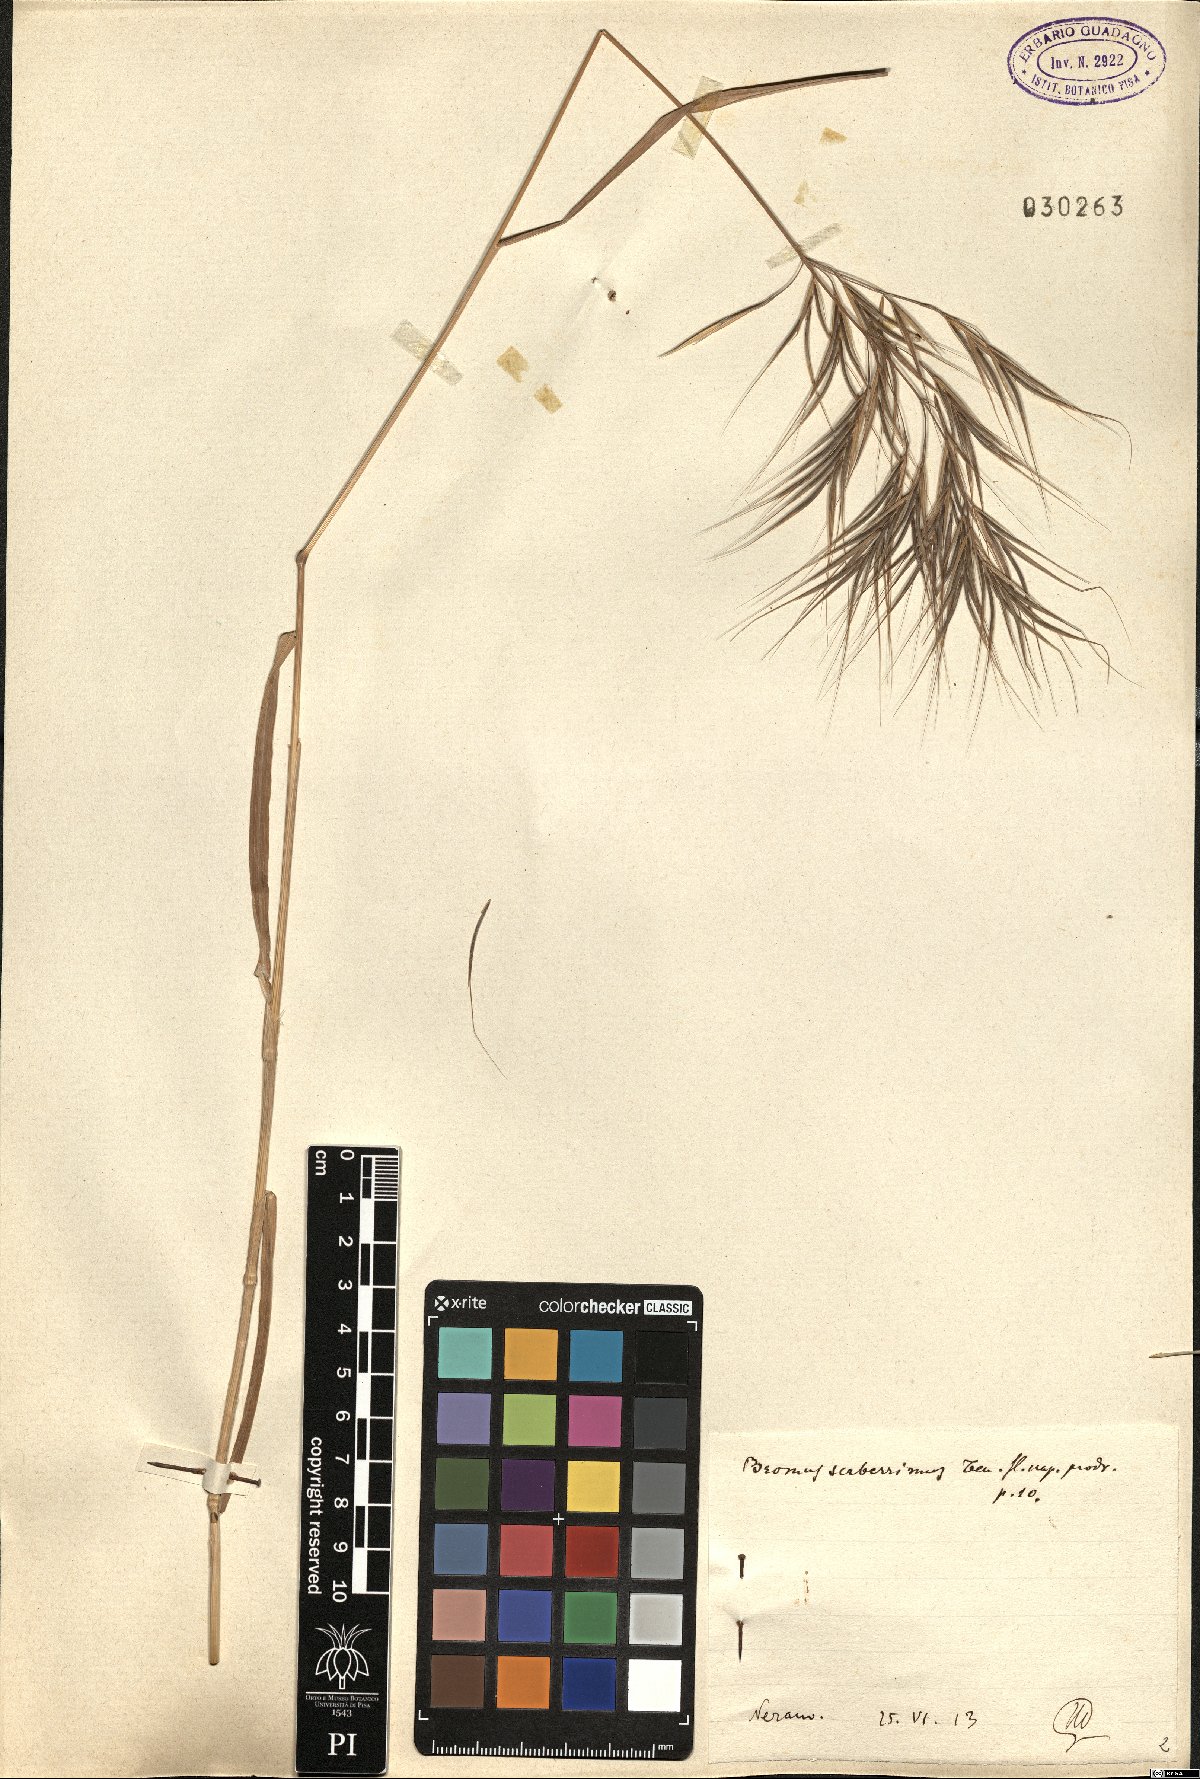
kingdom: Plantae
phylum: Tracheophyta
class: Liliopsida
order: Poales
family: Poaceae
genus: Bromus
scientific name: Bromus sterilis
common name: Poverty brome
